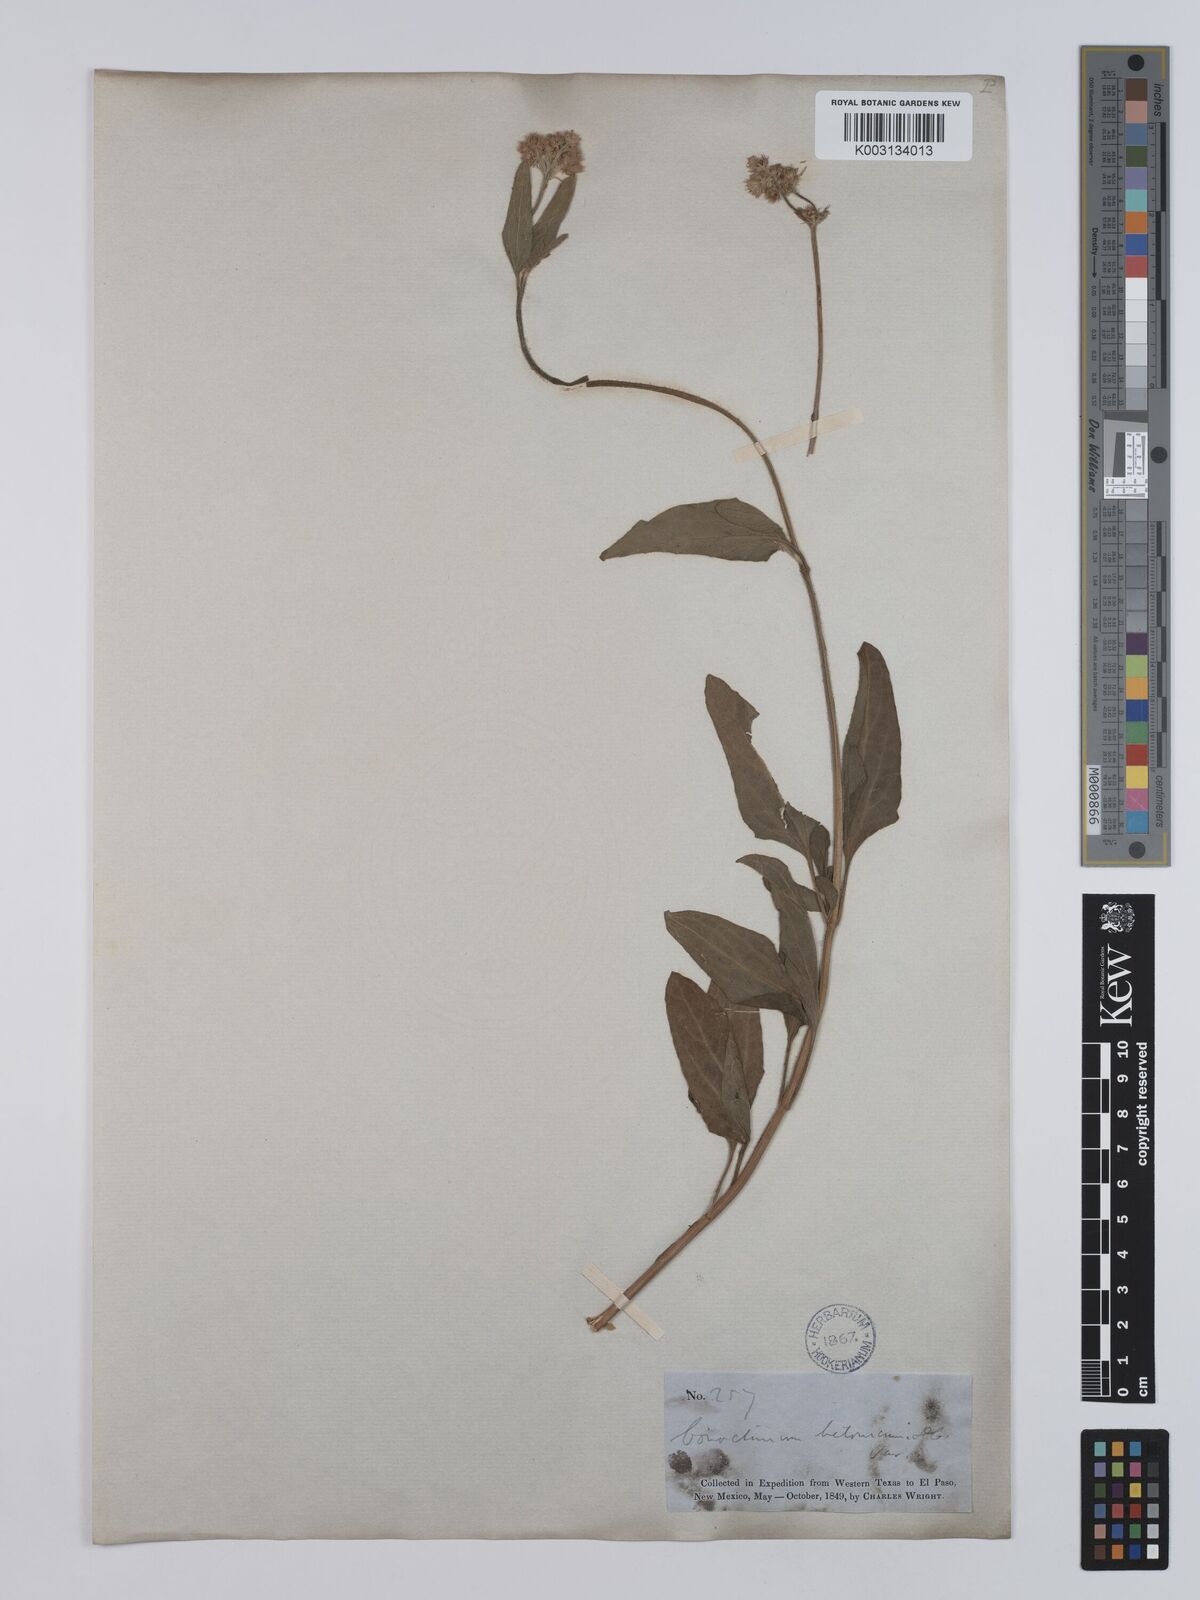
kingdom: Plantae
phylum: Tracheophyta
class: Magnoliopsida
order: Asterales
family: Asteraceae
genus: Conoclinium
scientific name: Conoclinium betonicifolium
